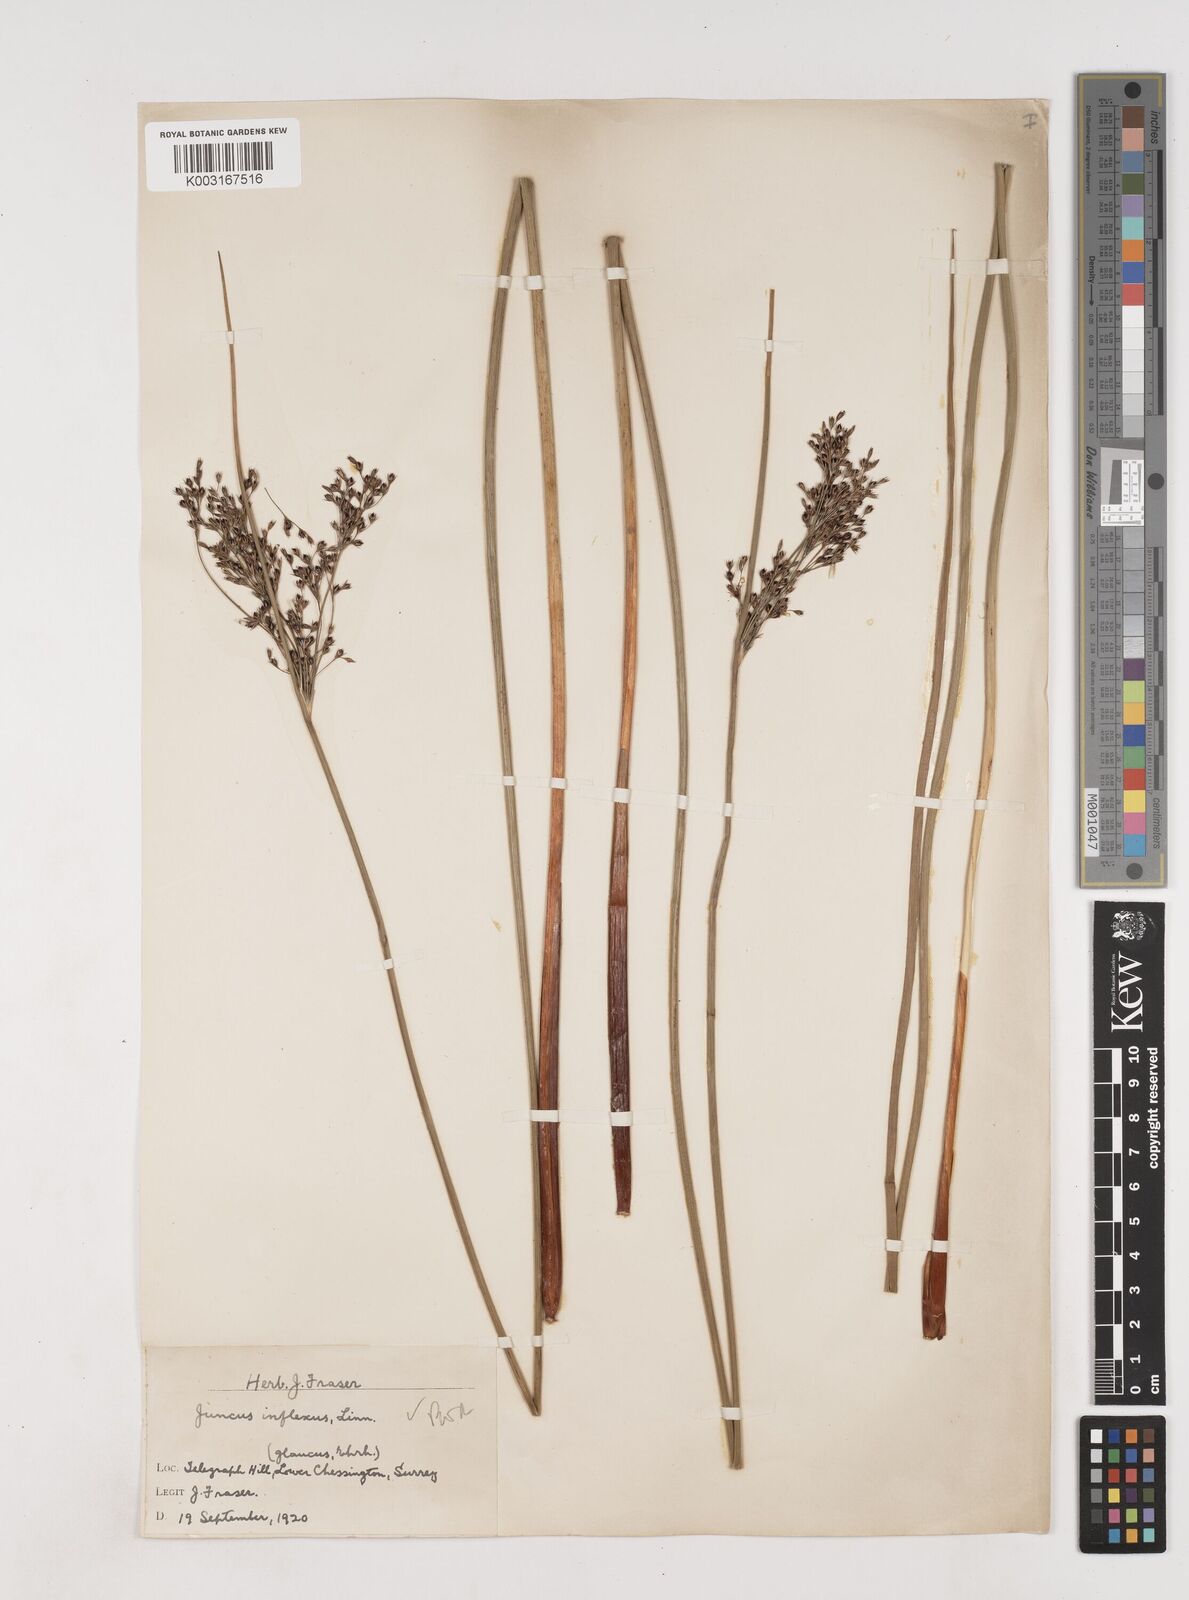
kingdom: Plantae
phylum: Tracheophyta
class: Liliopsida
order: Poales
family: Juncaceae
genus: Juncus
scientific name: Juncus inflexus
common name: Hard rush
